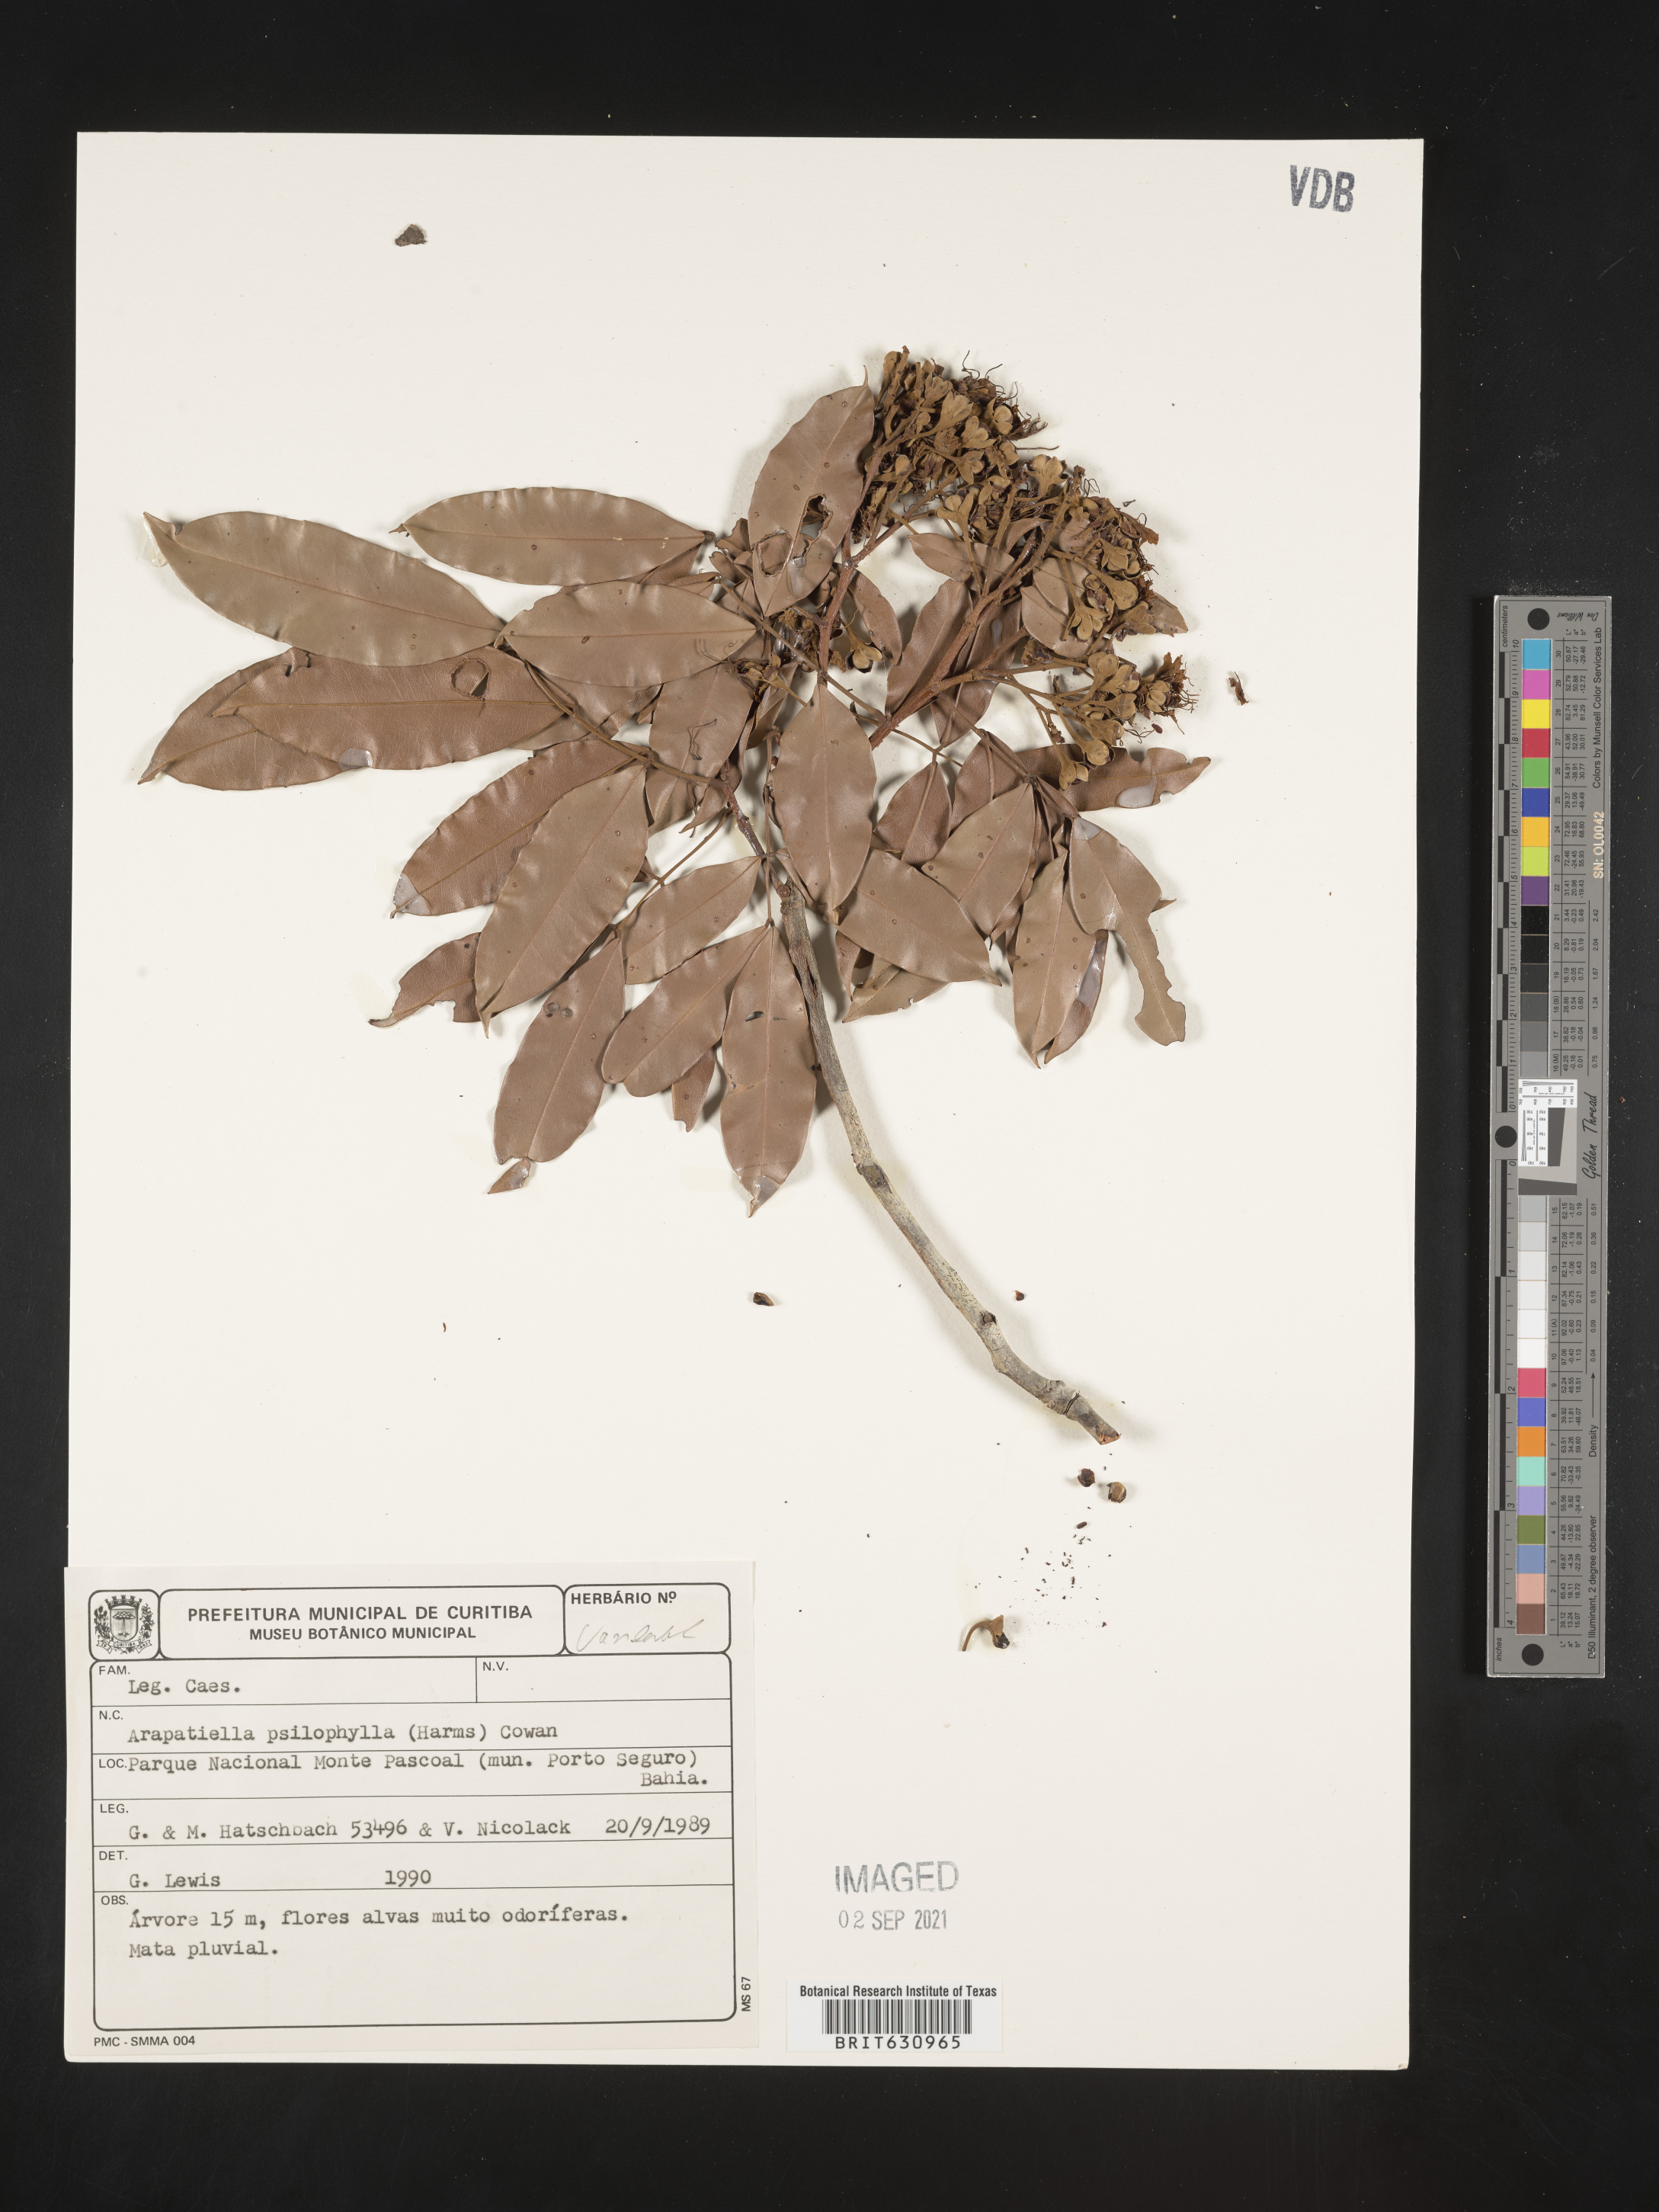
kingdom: Plantae
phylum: Tracheophyta
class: Magnoliopsida
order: Fabales
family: Fabaceae
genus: Arapatiella
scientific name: Arapatiella
